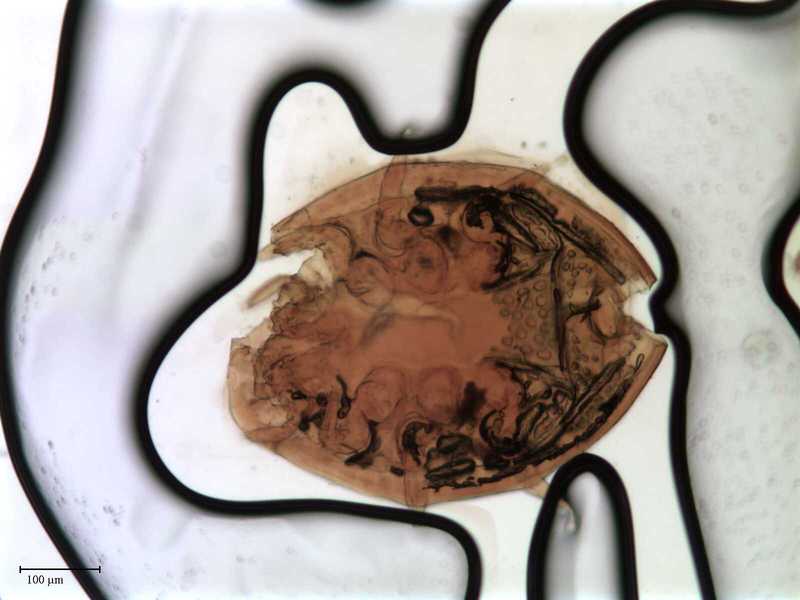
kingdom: Animalia
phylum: Arthropoda
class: Arachnida
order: Mesostigmata
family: Uropodidae
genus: Uropoda
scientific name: Uropoda
